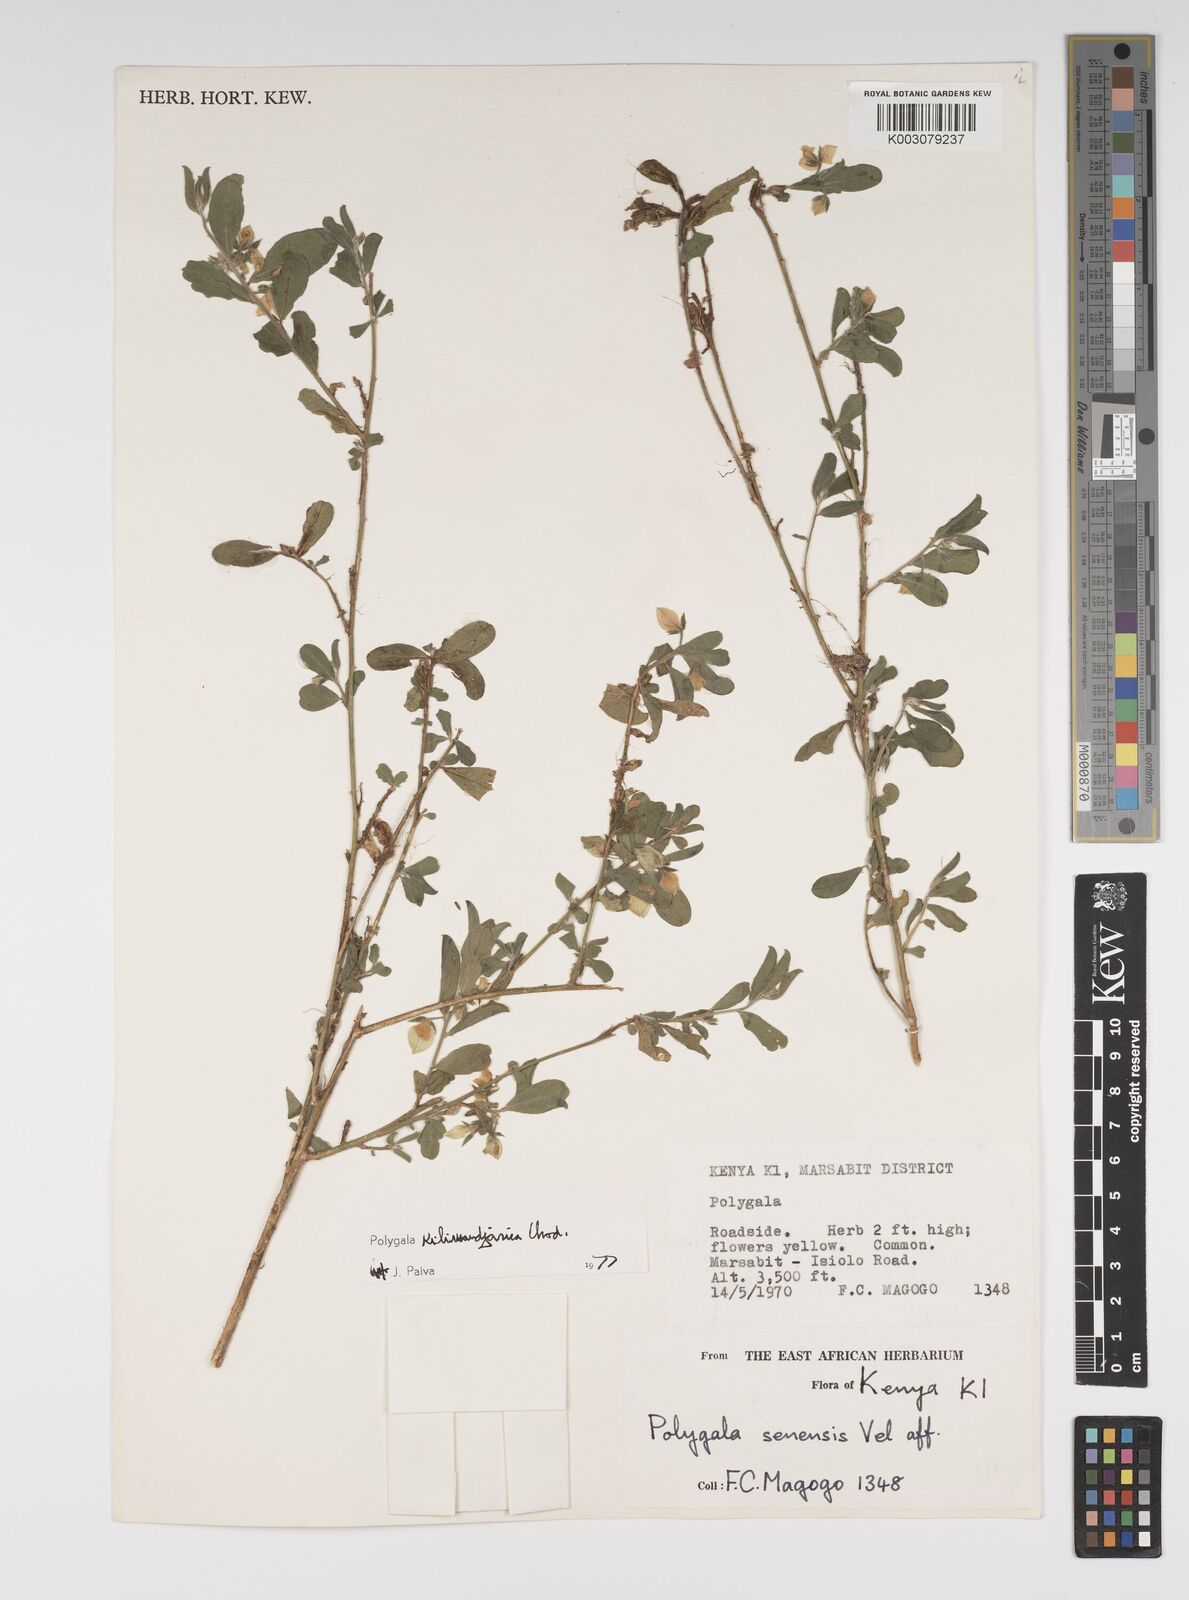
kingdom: Plantae
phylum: Tracheophyta
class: Magnoliopsida
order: Fabales
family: Polygalaceae
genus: Polygala
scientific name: Polygala kilimandjarica
